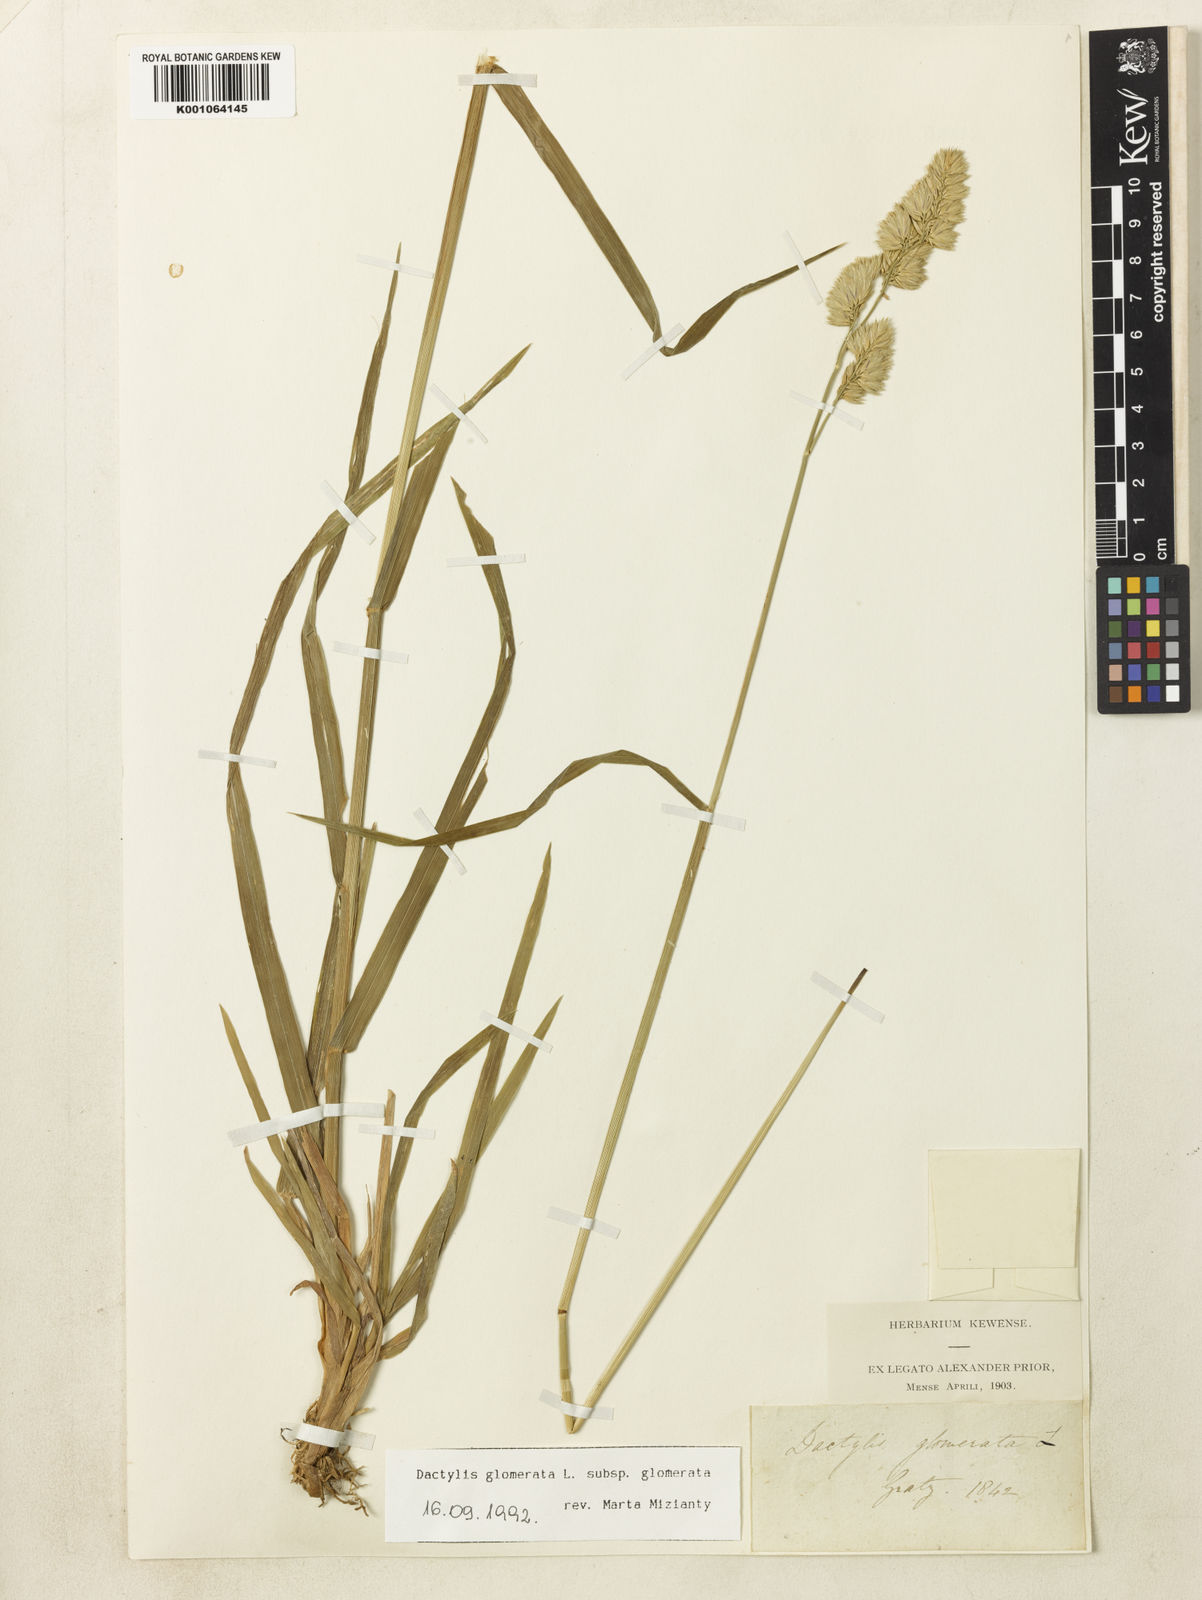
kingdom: Plantae
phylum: Tracheophyta
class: Liliopsida
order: Poales
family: Poaceae
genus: Dactylis
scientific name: Dactylis glomerata
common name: Orchardgrass
